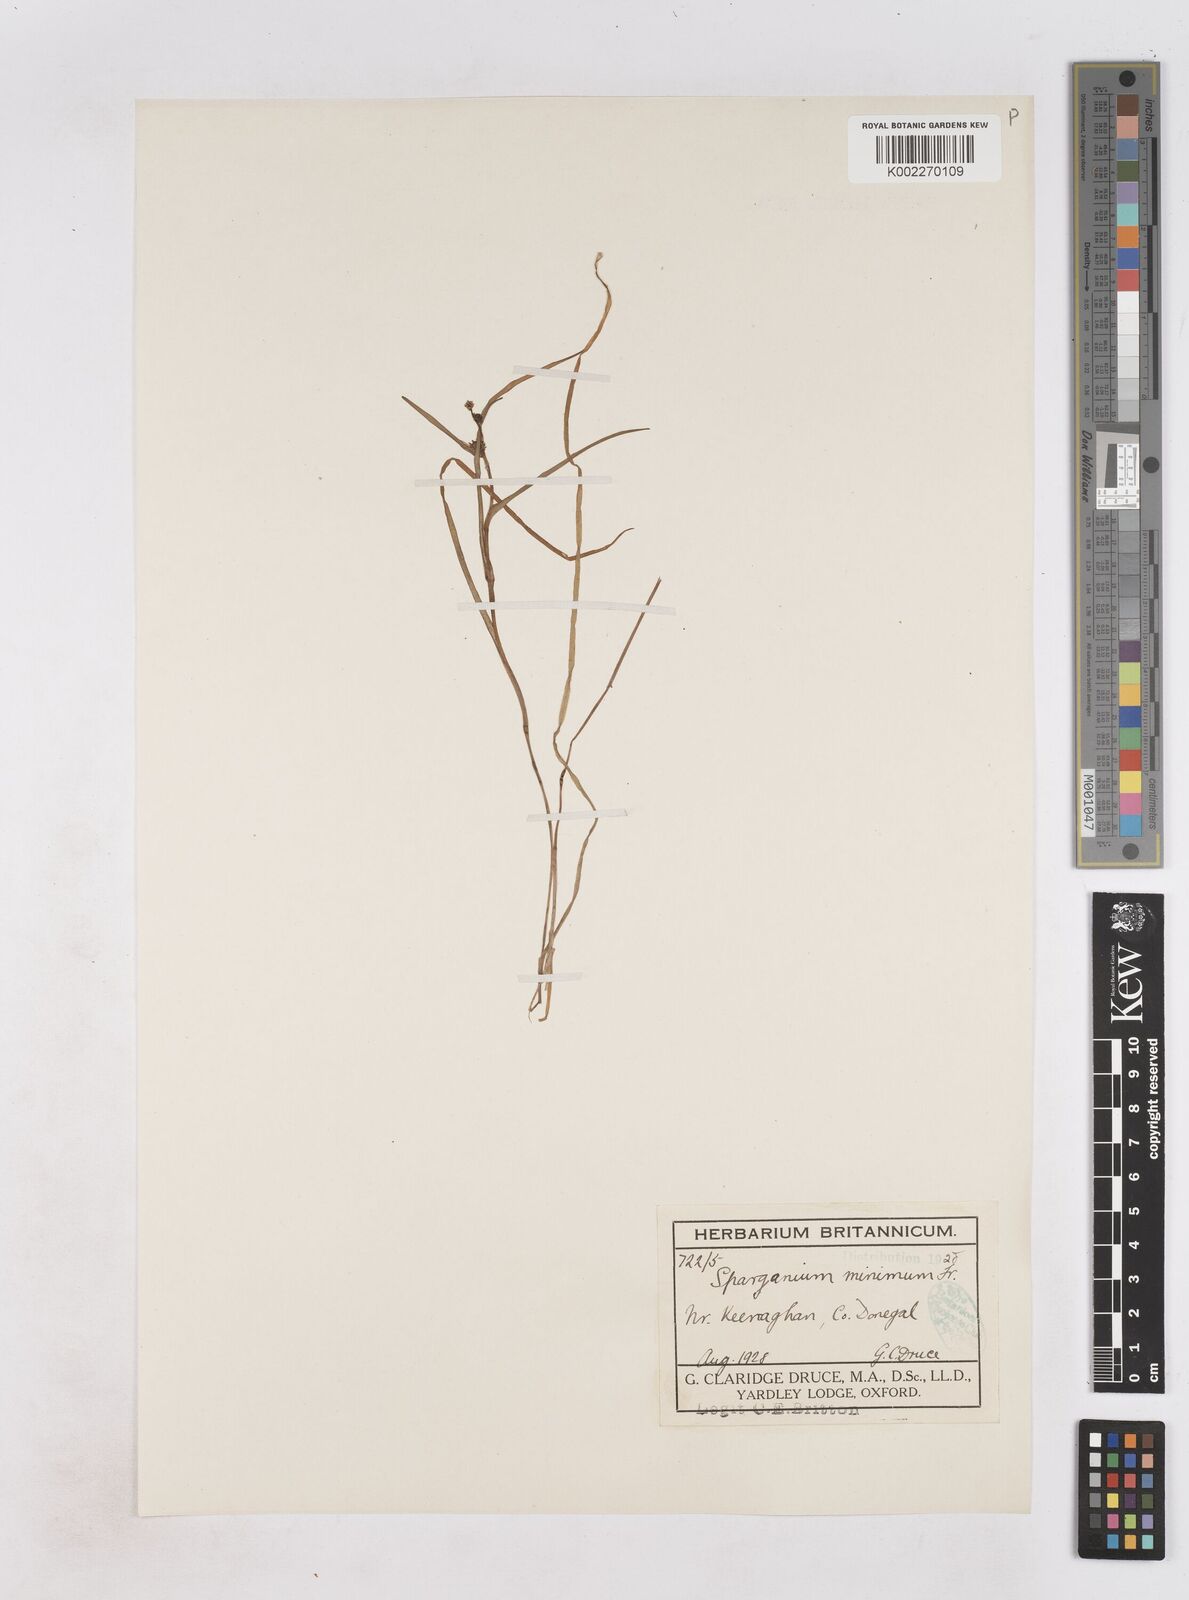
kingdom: Plantae
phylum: Tracheophyta
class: Liliopsida
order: Poales
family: Typhaceae
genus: Sparganium
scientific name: Sparganium natans
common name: Least bur-reed
